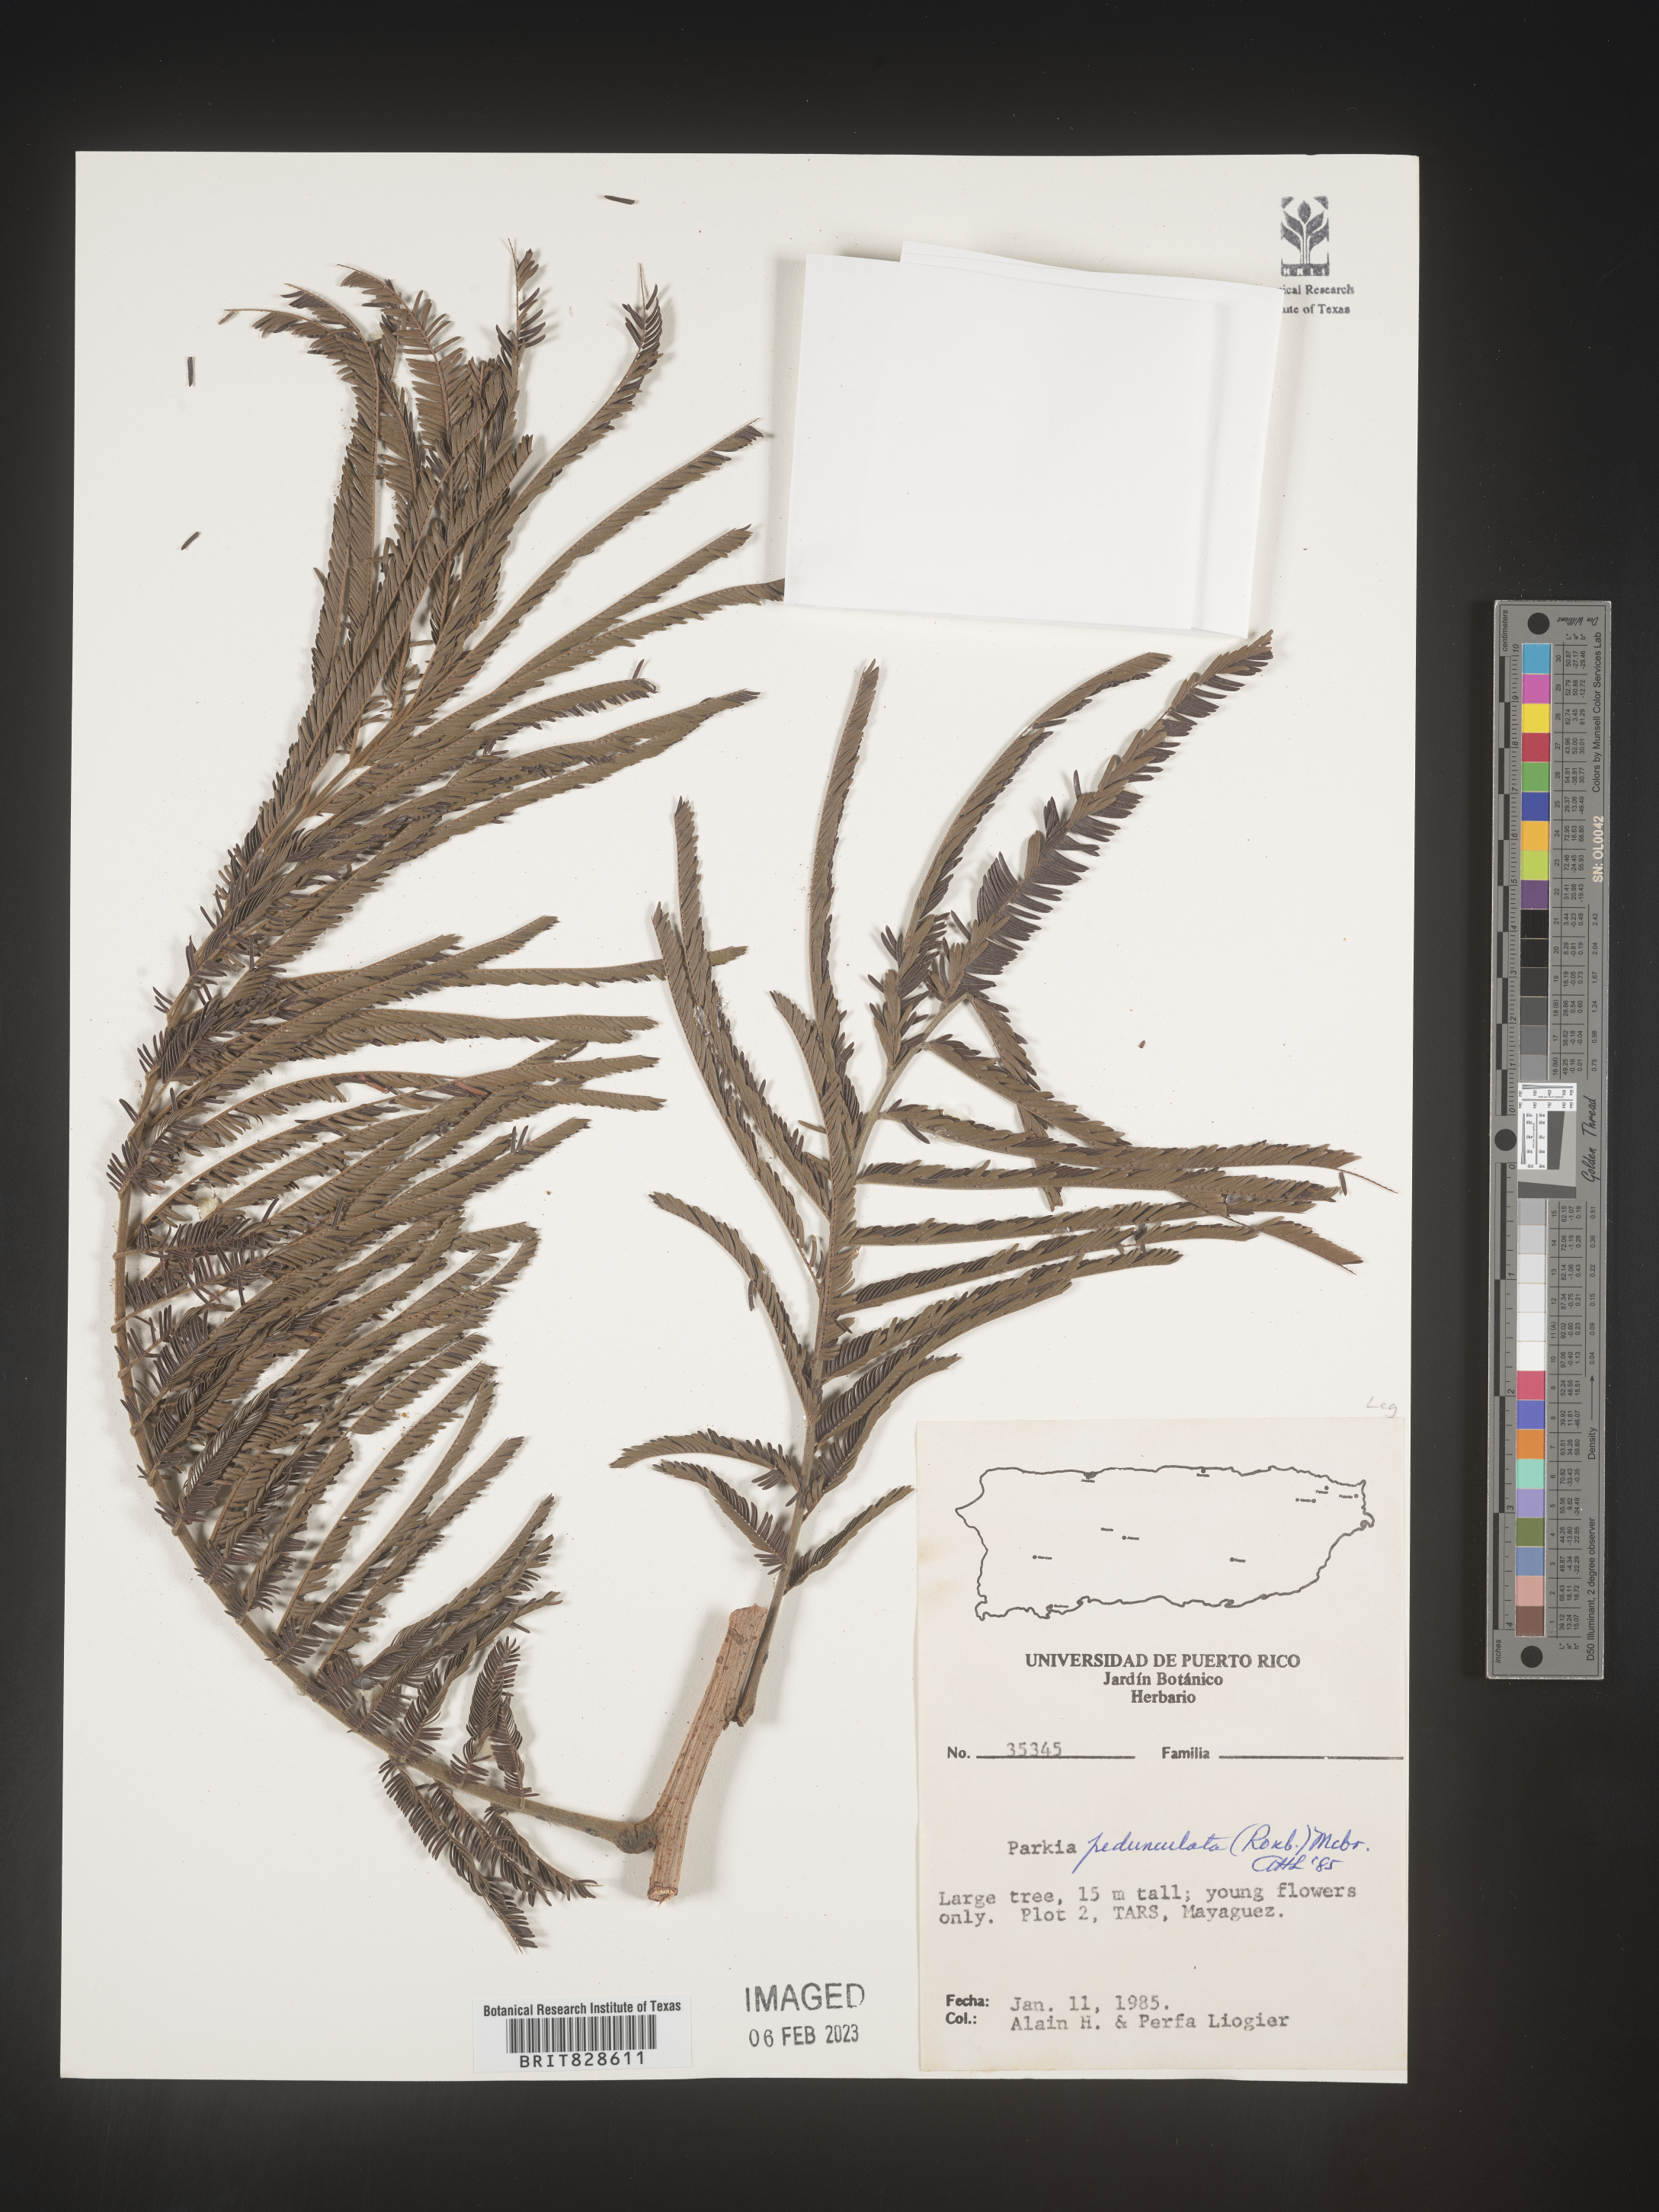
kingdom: Plantae
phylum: Tracheophyta
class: Magnoliopsida
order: Fabales
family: Fabaceae
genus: Parkia
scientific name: Parkia
